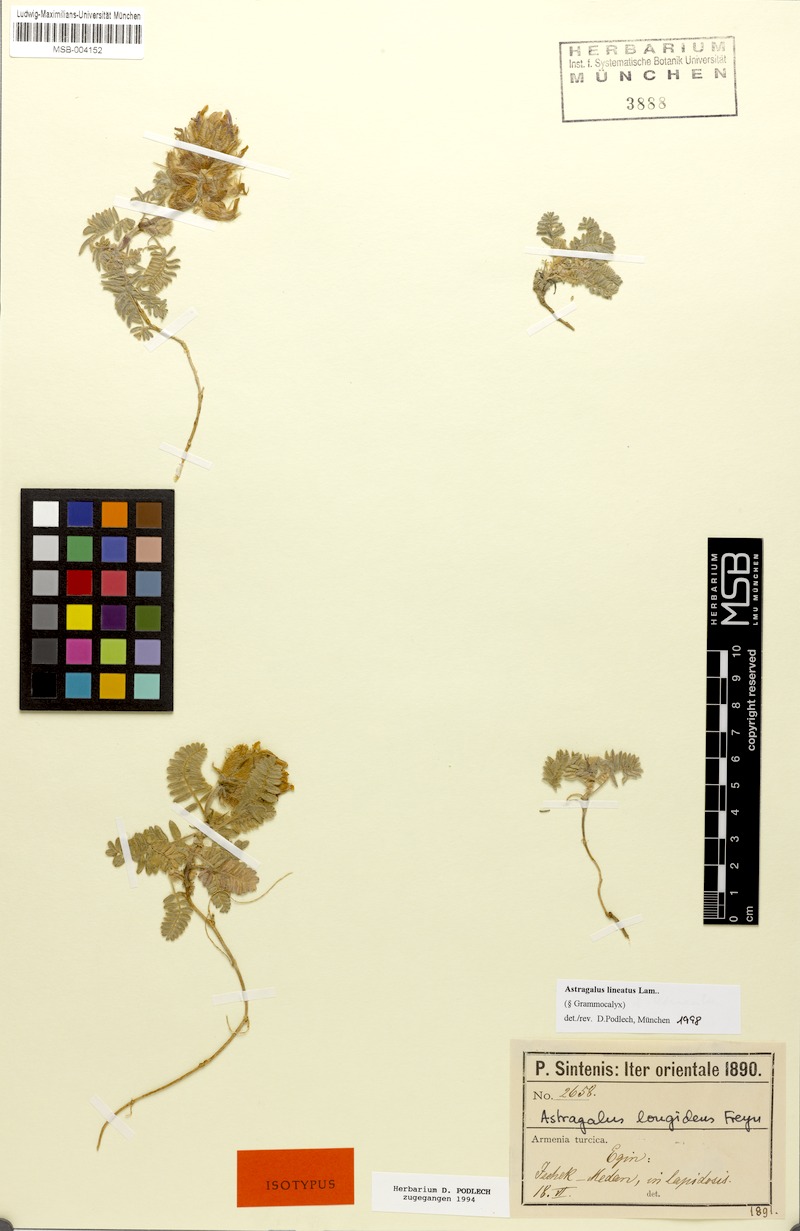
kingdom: Plantae
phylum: Tracheophyta
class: Magnoliopsida
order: Fabales
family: Fabaceae
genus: Astragalus
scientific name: Astragalus lineatus
